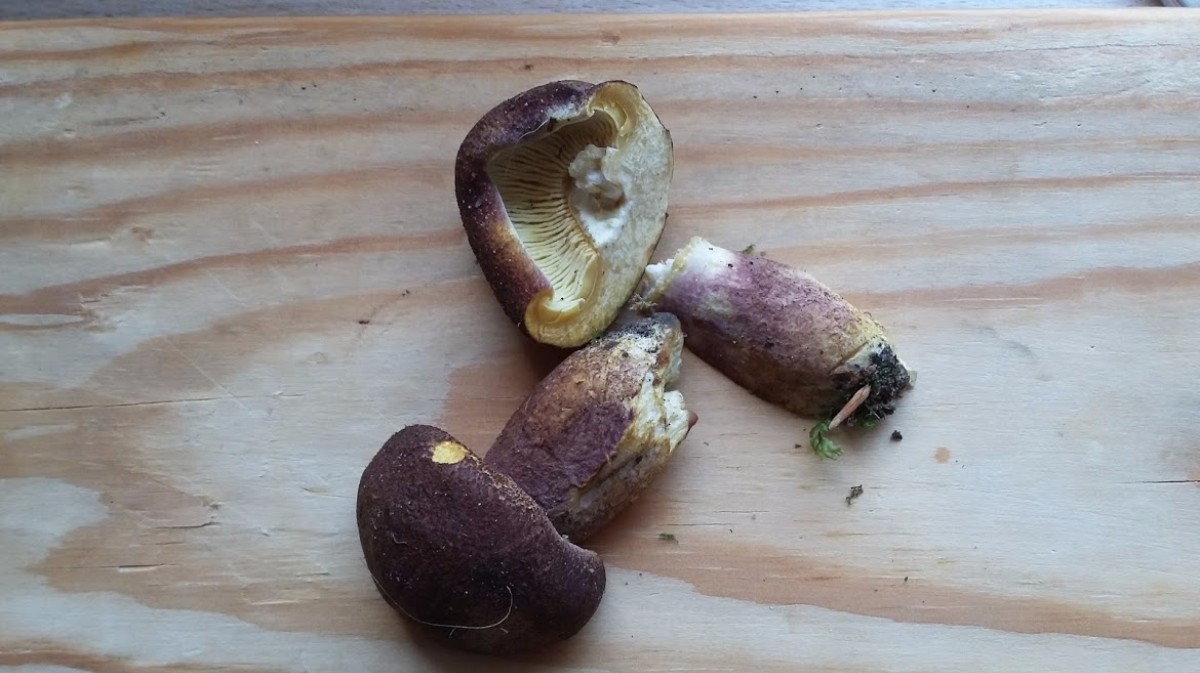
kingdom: Fungi
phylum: Basidiomycota
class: Agaricomycetes
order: Agaricales
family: Tricholomataceae
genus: Tricholomopsis
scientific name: Tricholomopsis rutilans
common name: purpur-væbnerhat
